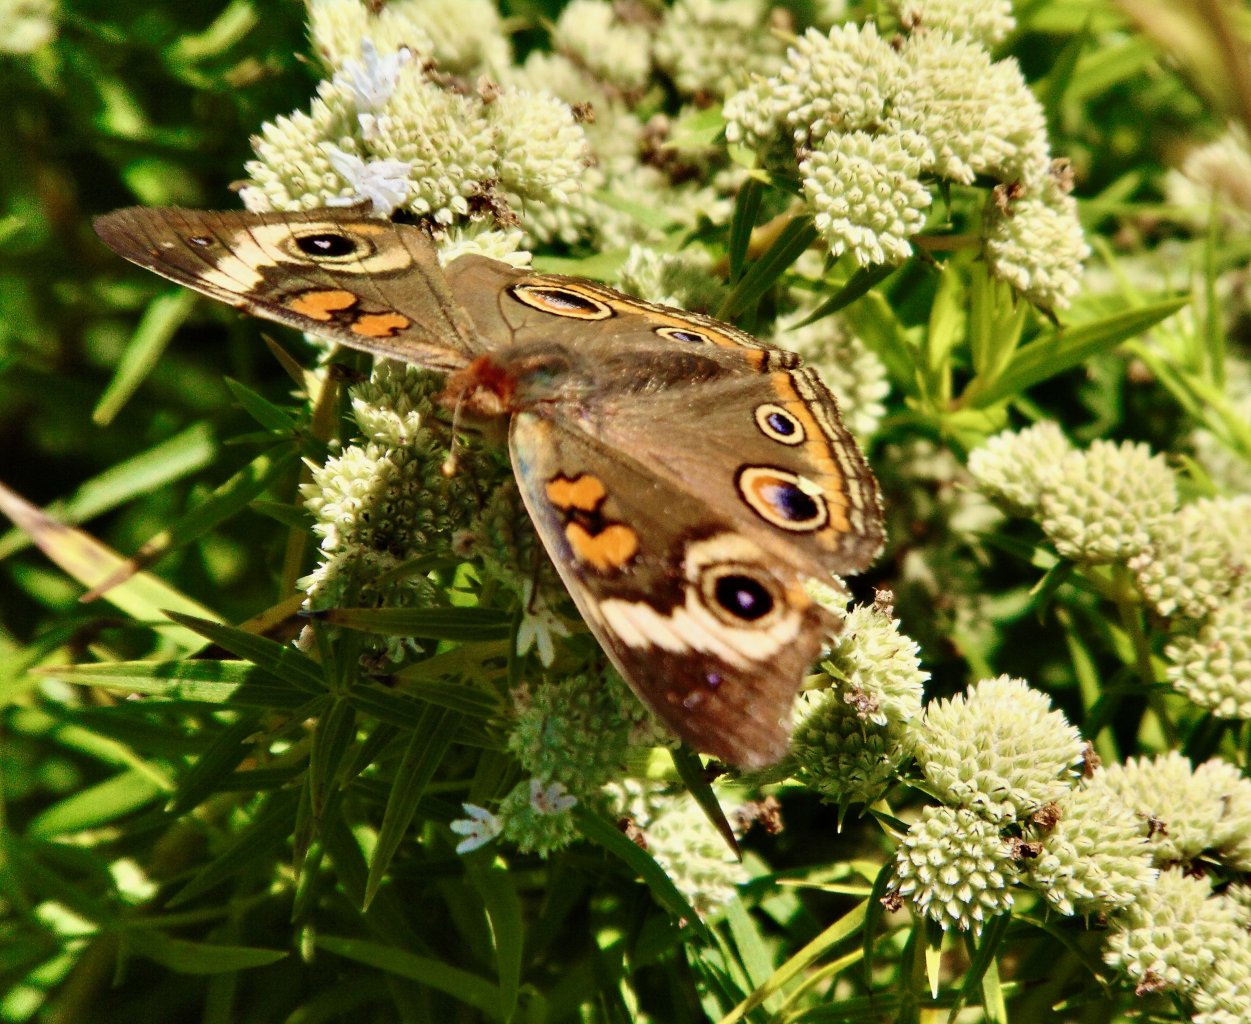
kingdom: Animalia
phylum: Arthropoda
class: Insecta
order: Lepidoptera
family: Nymphalidae
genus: Junonia
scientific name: Junonia coenia
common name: Common Buckeye
